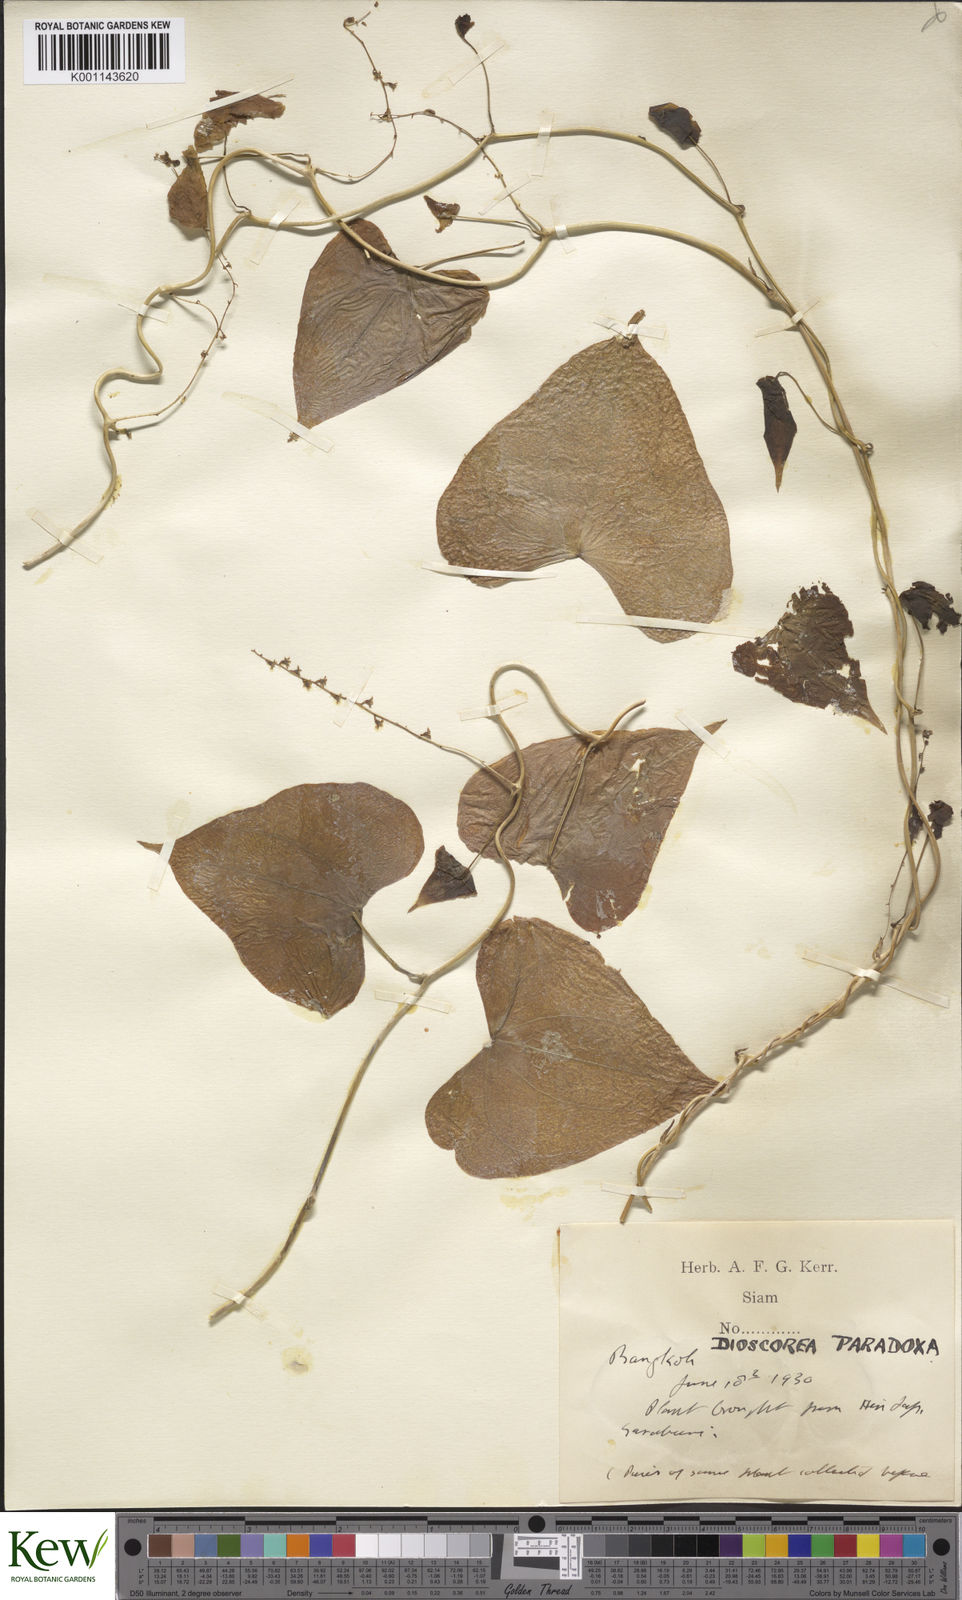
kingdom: Plantae
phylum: Tracheophyta
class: Liliopsida
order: Dioscoreales
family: Dioscoreaceae
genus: Dioscorea
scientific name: Dioscorea paradoxa
